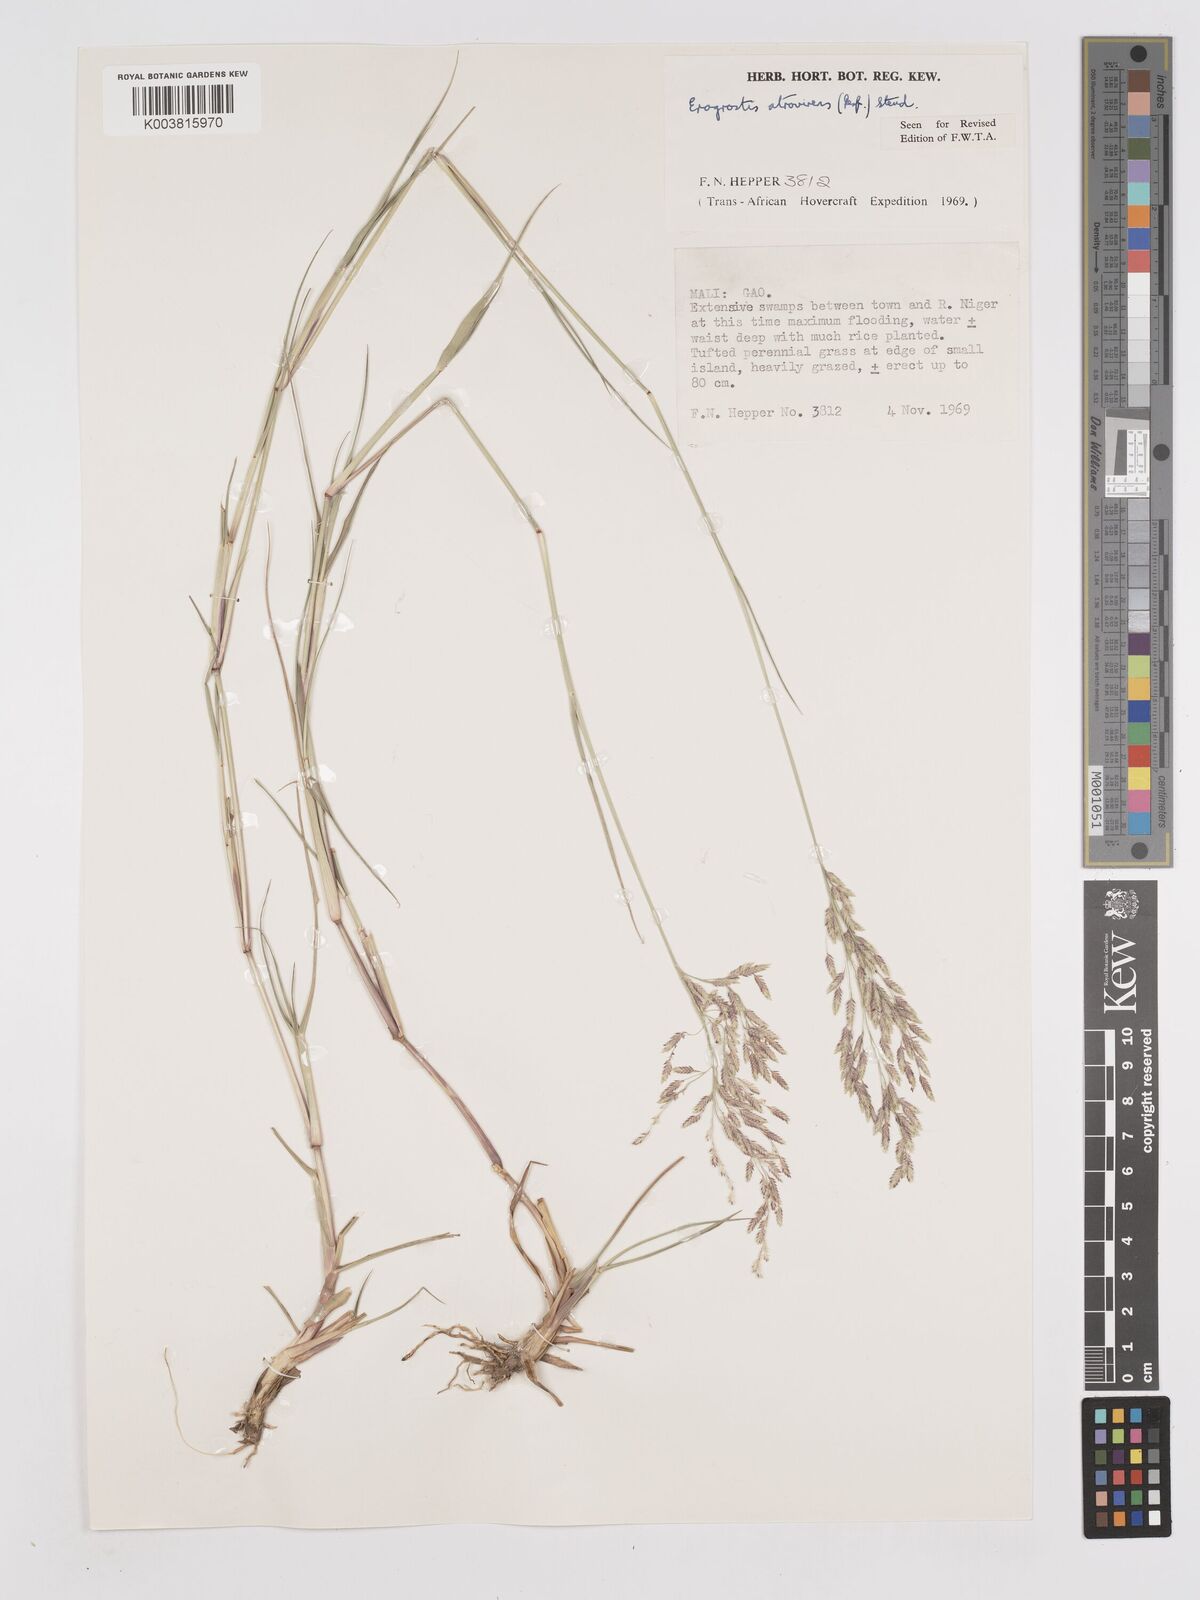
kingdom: Plantae
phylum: Tracheophyta
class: Liliopsida
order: Poales
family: Poaceae
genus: Eragrostis
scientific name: Eragrostis atrovirens
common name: Thalia lovegrass
